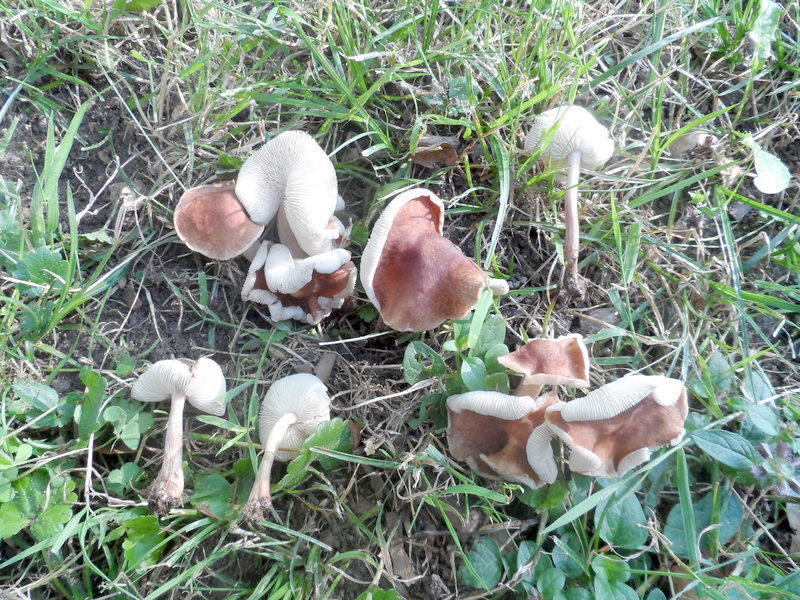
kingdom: Fungi
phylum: Basidiomycota
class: Agaricomycetes
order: Agaricales
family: Omphalotaceae
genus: Collybiopsis
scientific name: Collybiopsis luxurians
